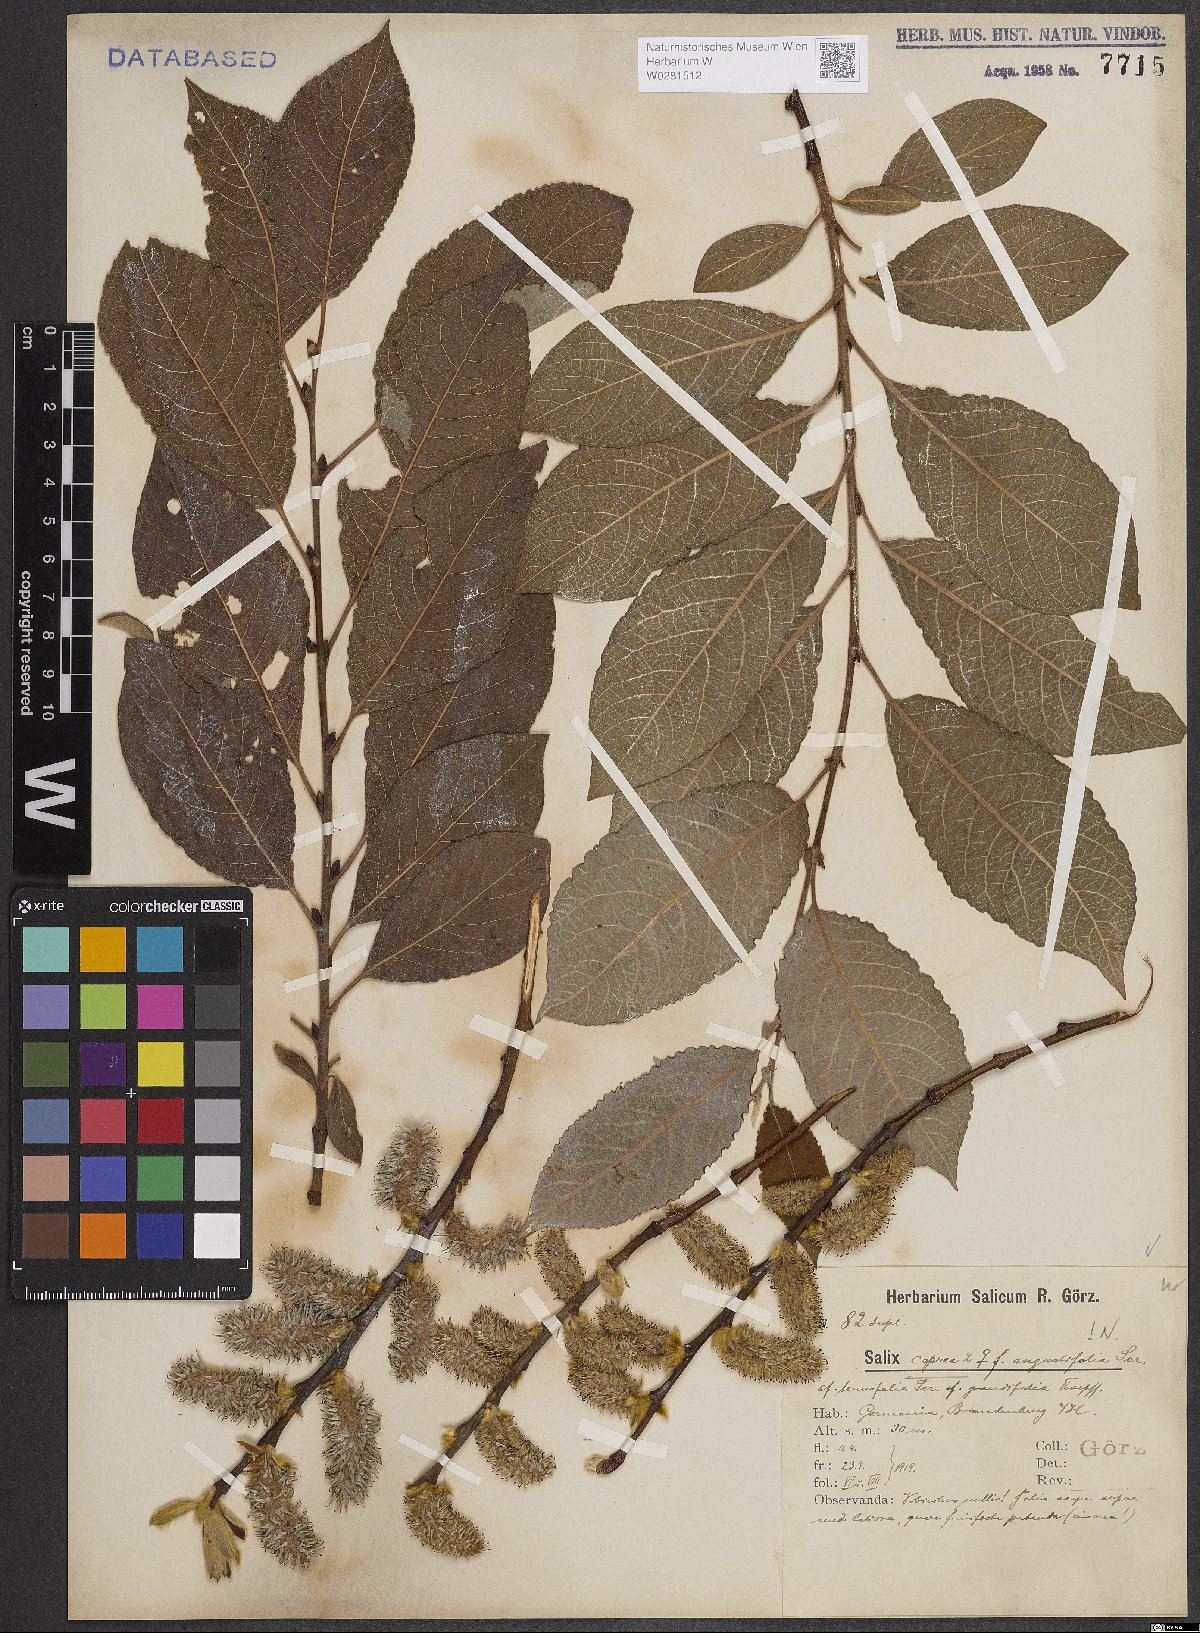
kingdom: Plantae
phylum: Tracheophyta
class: Magnoliopsida
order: Malpighiales
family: Salicaceae
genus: Salix
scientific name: Salix caprea
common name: Goat willow
